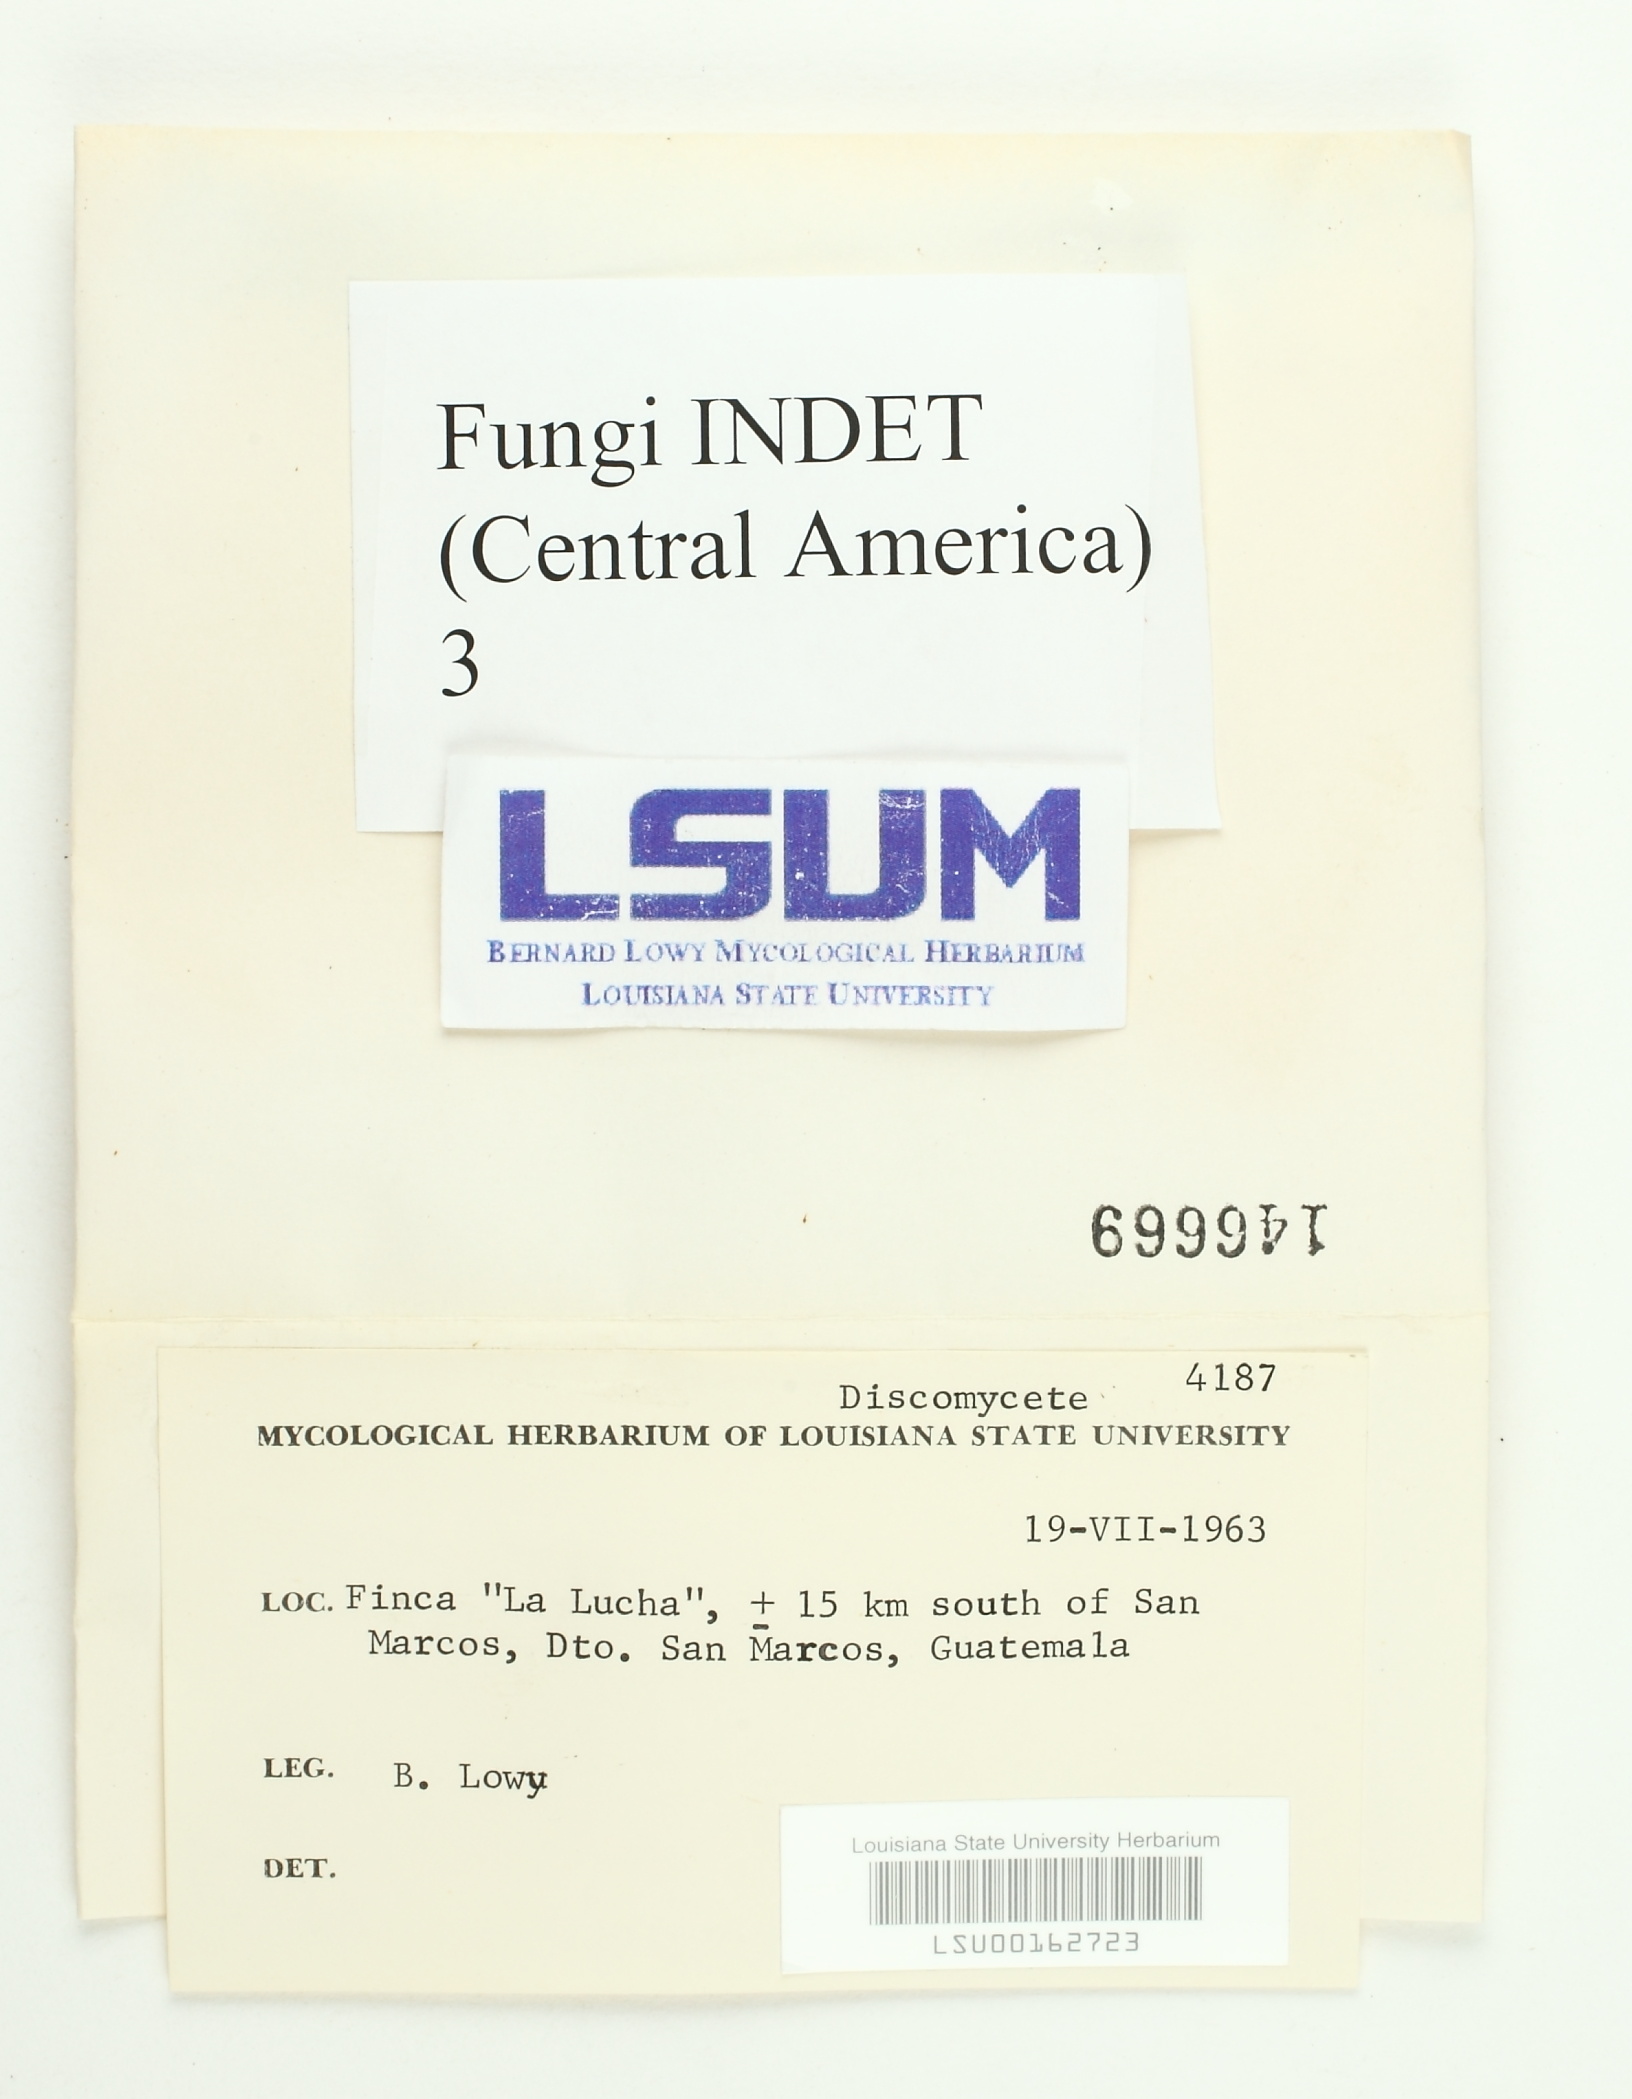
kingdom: Fungi
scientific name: Fungi
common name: Fungi
